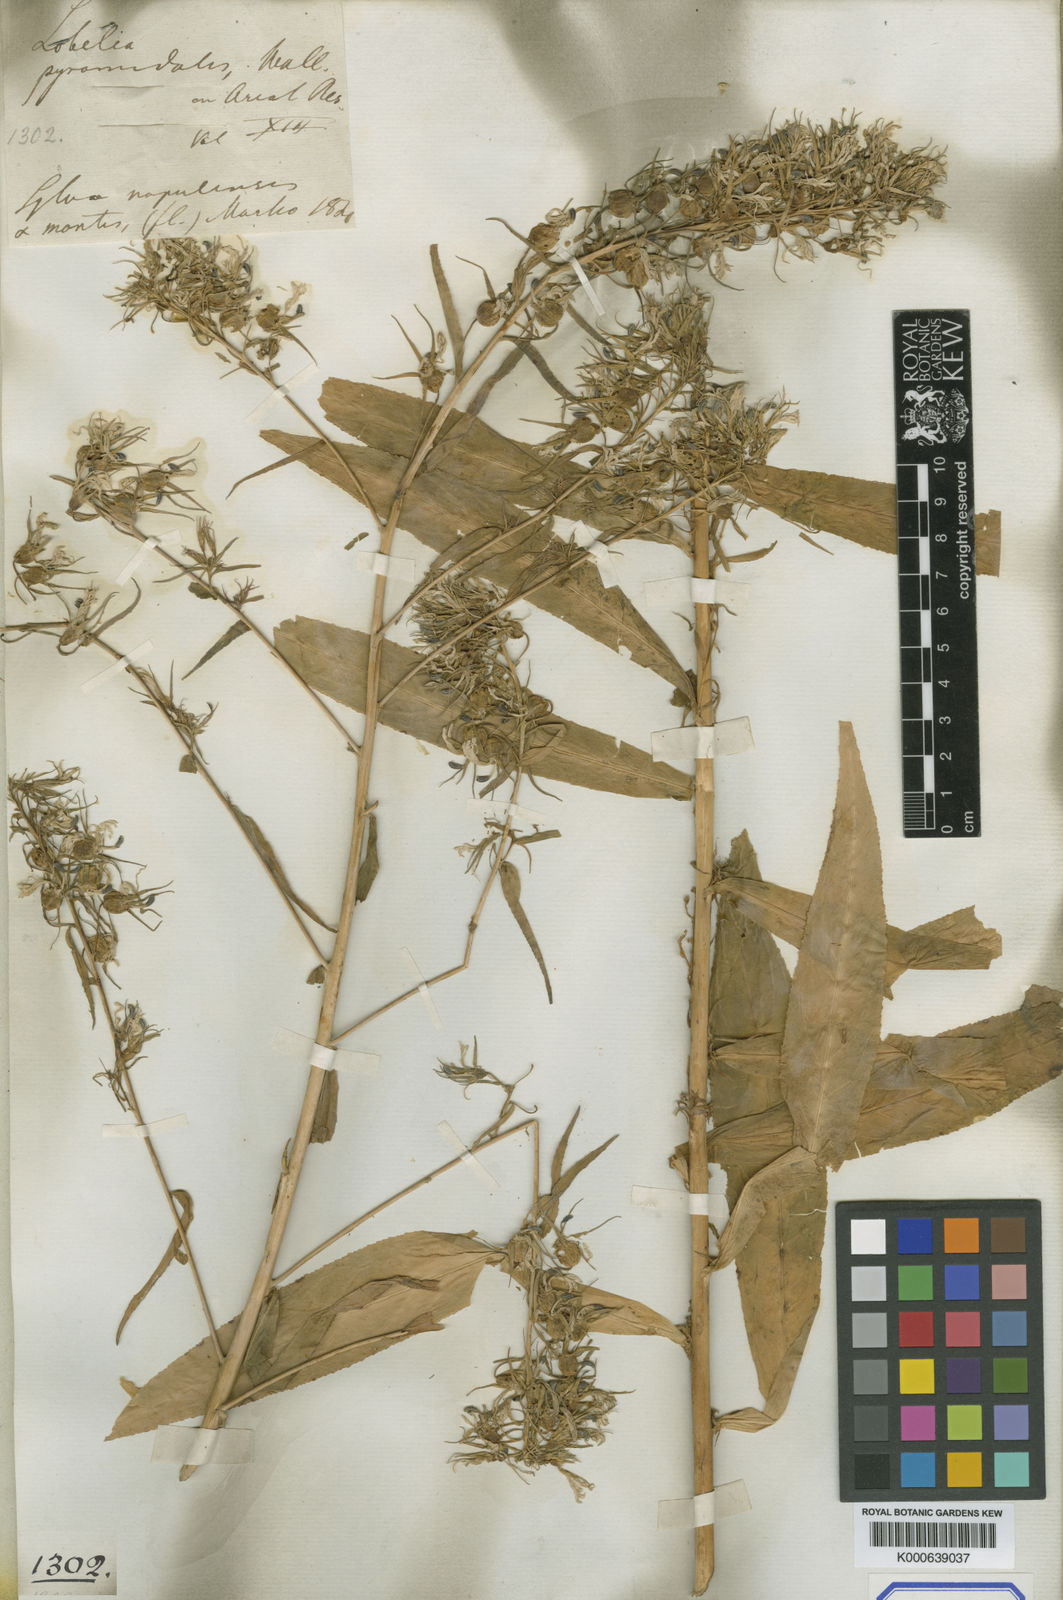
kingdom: Plantae
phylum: Tracheophyta
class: Magnoliopsida
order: Asterales
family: Campanulaceae
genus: Lobelia
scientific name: Lobelia pyramidalis
